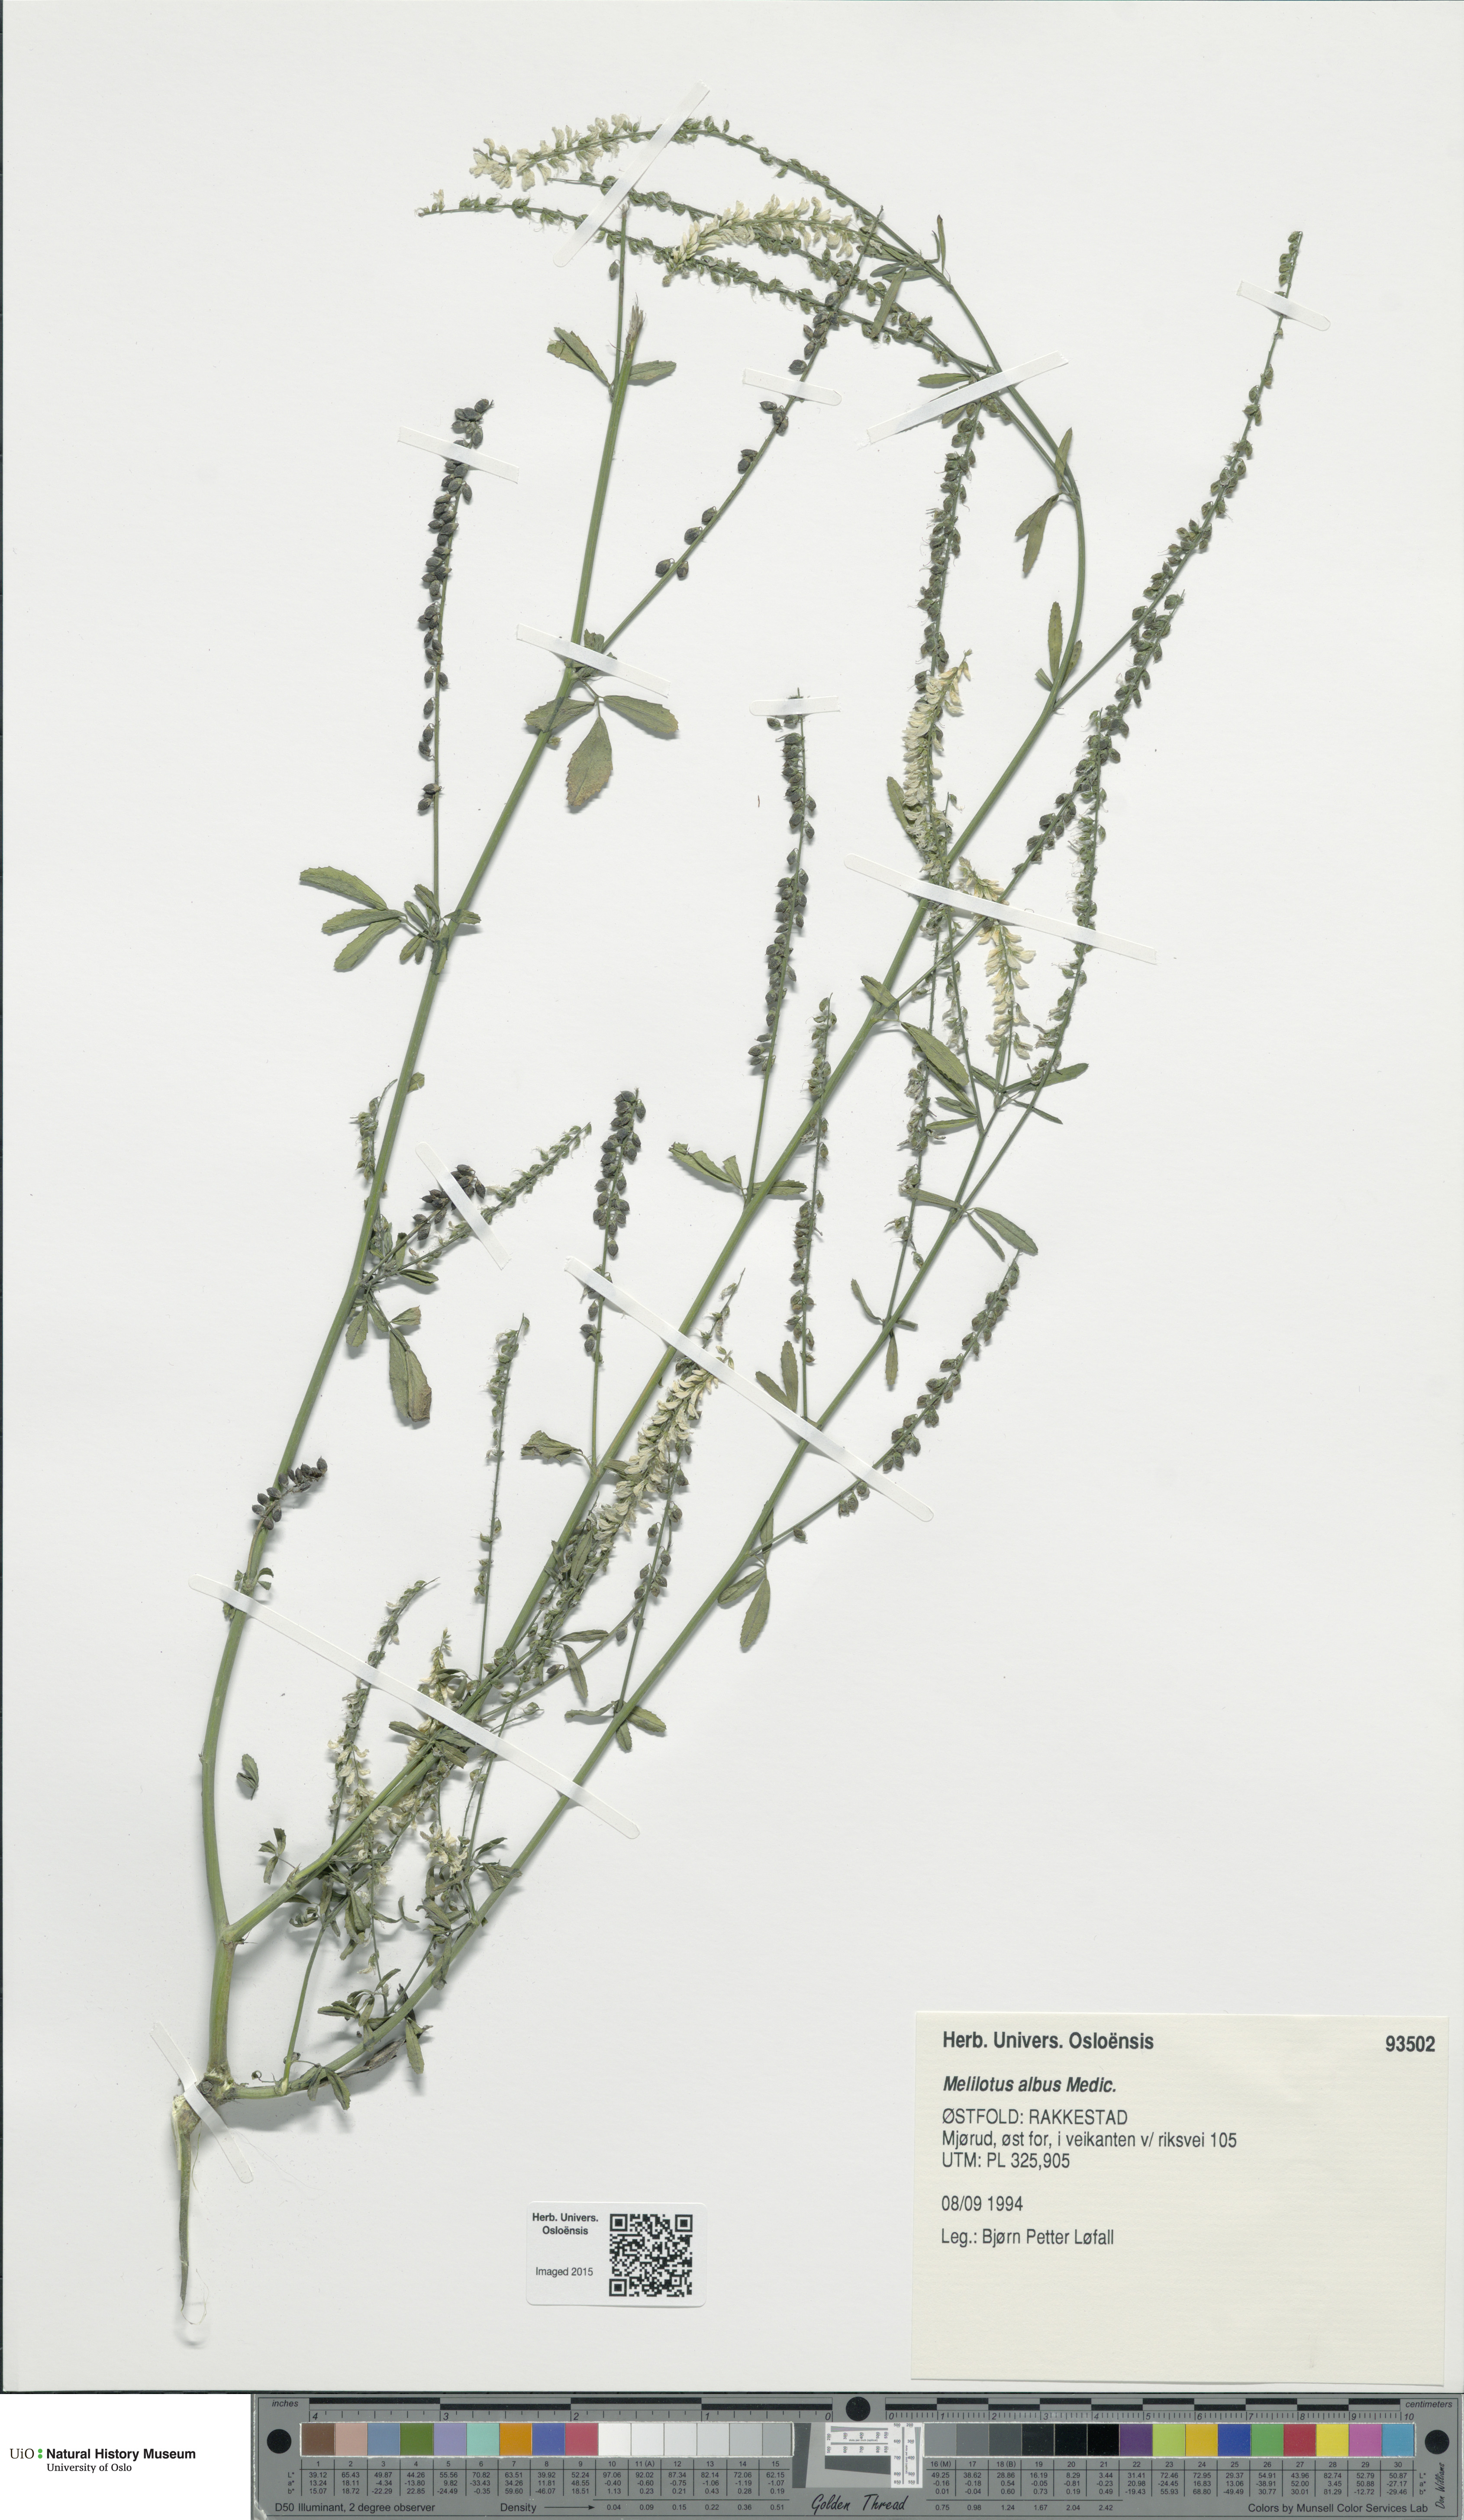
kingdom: Plantae
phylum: Tracheophyta
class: Magnoliopsida
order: Fabales
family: Fabaceae
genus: Melilotus
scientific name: Melilotus albus
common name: White melilot
